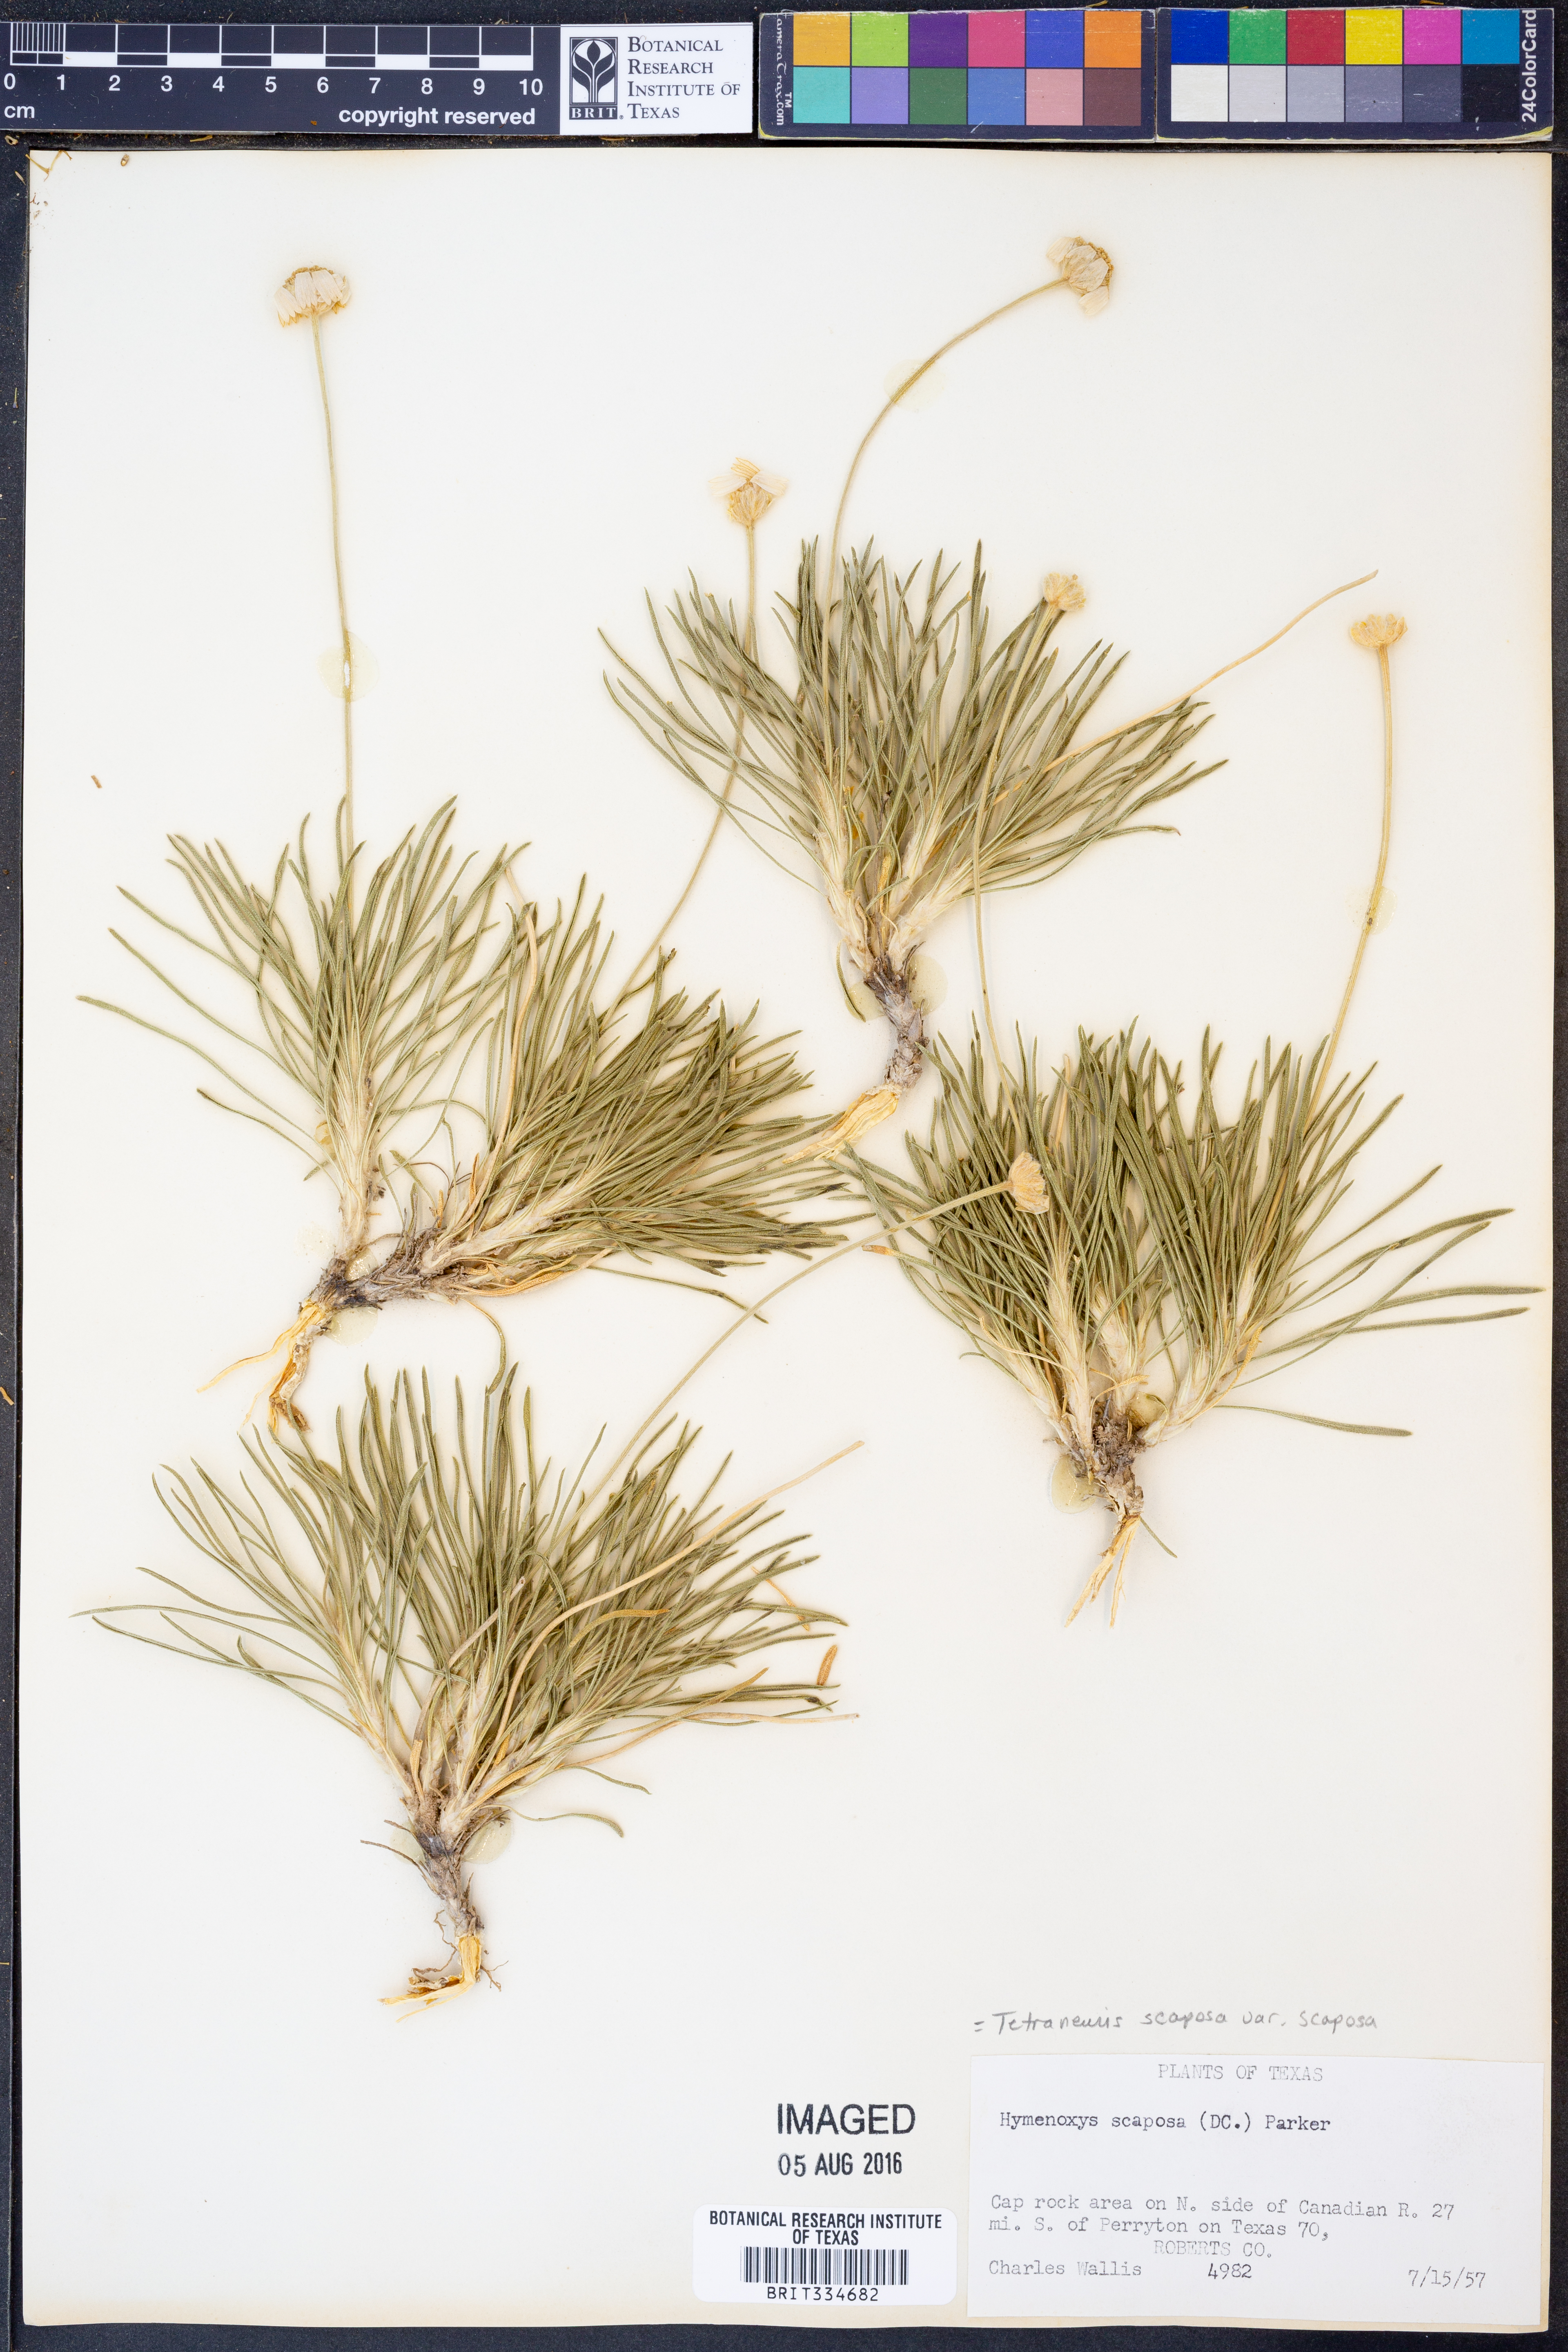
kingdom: Plantae
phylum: Tracheophyta
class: Magnoliopsida
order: Asterales
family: Asteraceae
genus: Tetraneuris
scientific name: Tetraneuris scaposa
